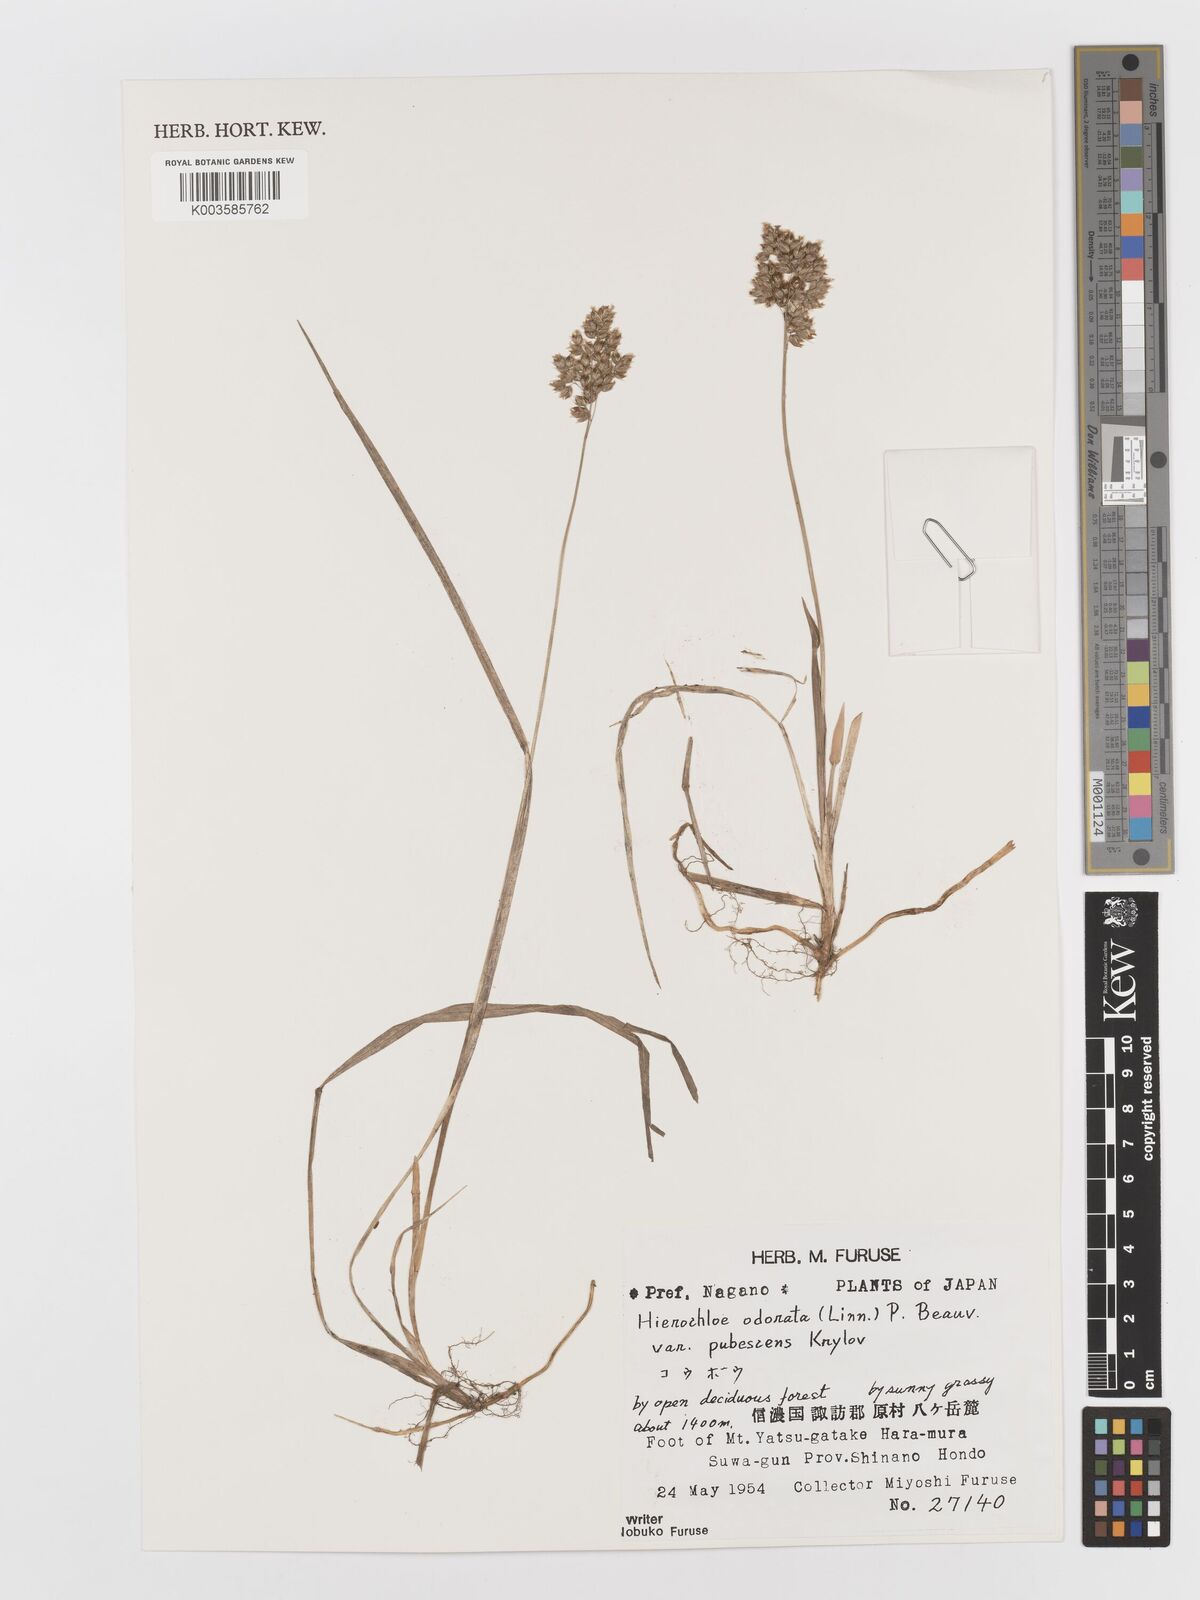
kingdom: Plantae
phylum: Tracheophyta
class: Liliopsida
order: Poales
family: Poaceae
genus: Anthoxanthum
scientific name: Anthoxanthum nitens
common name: Holy grass
